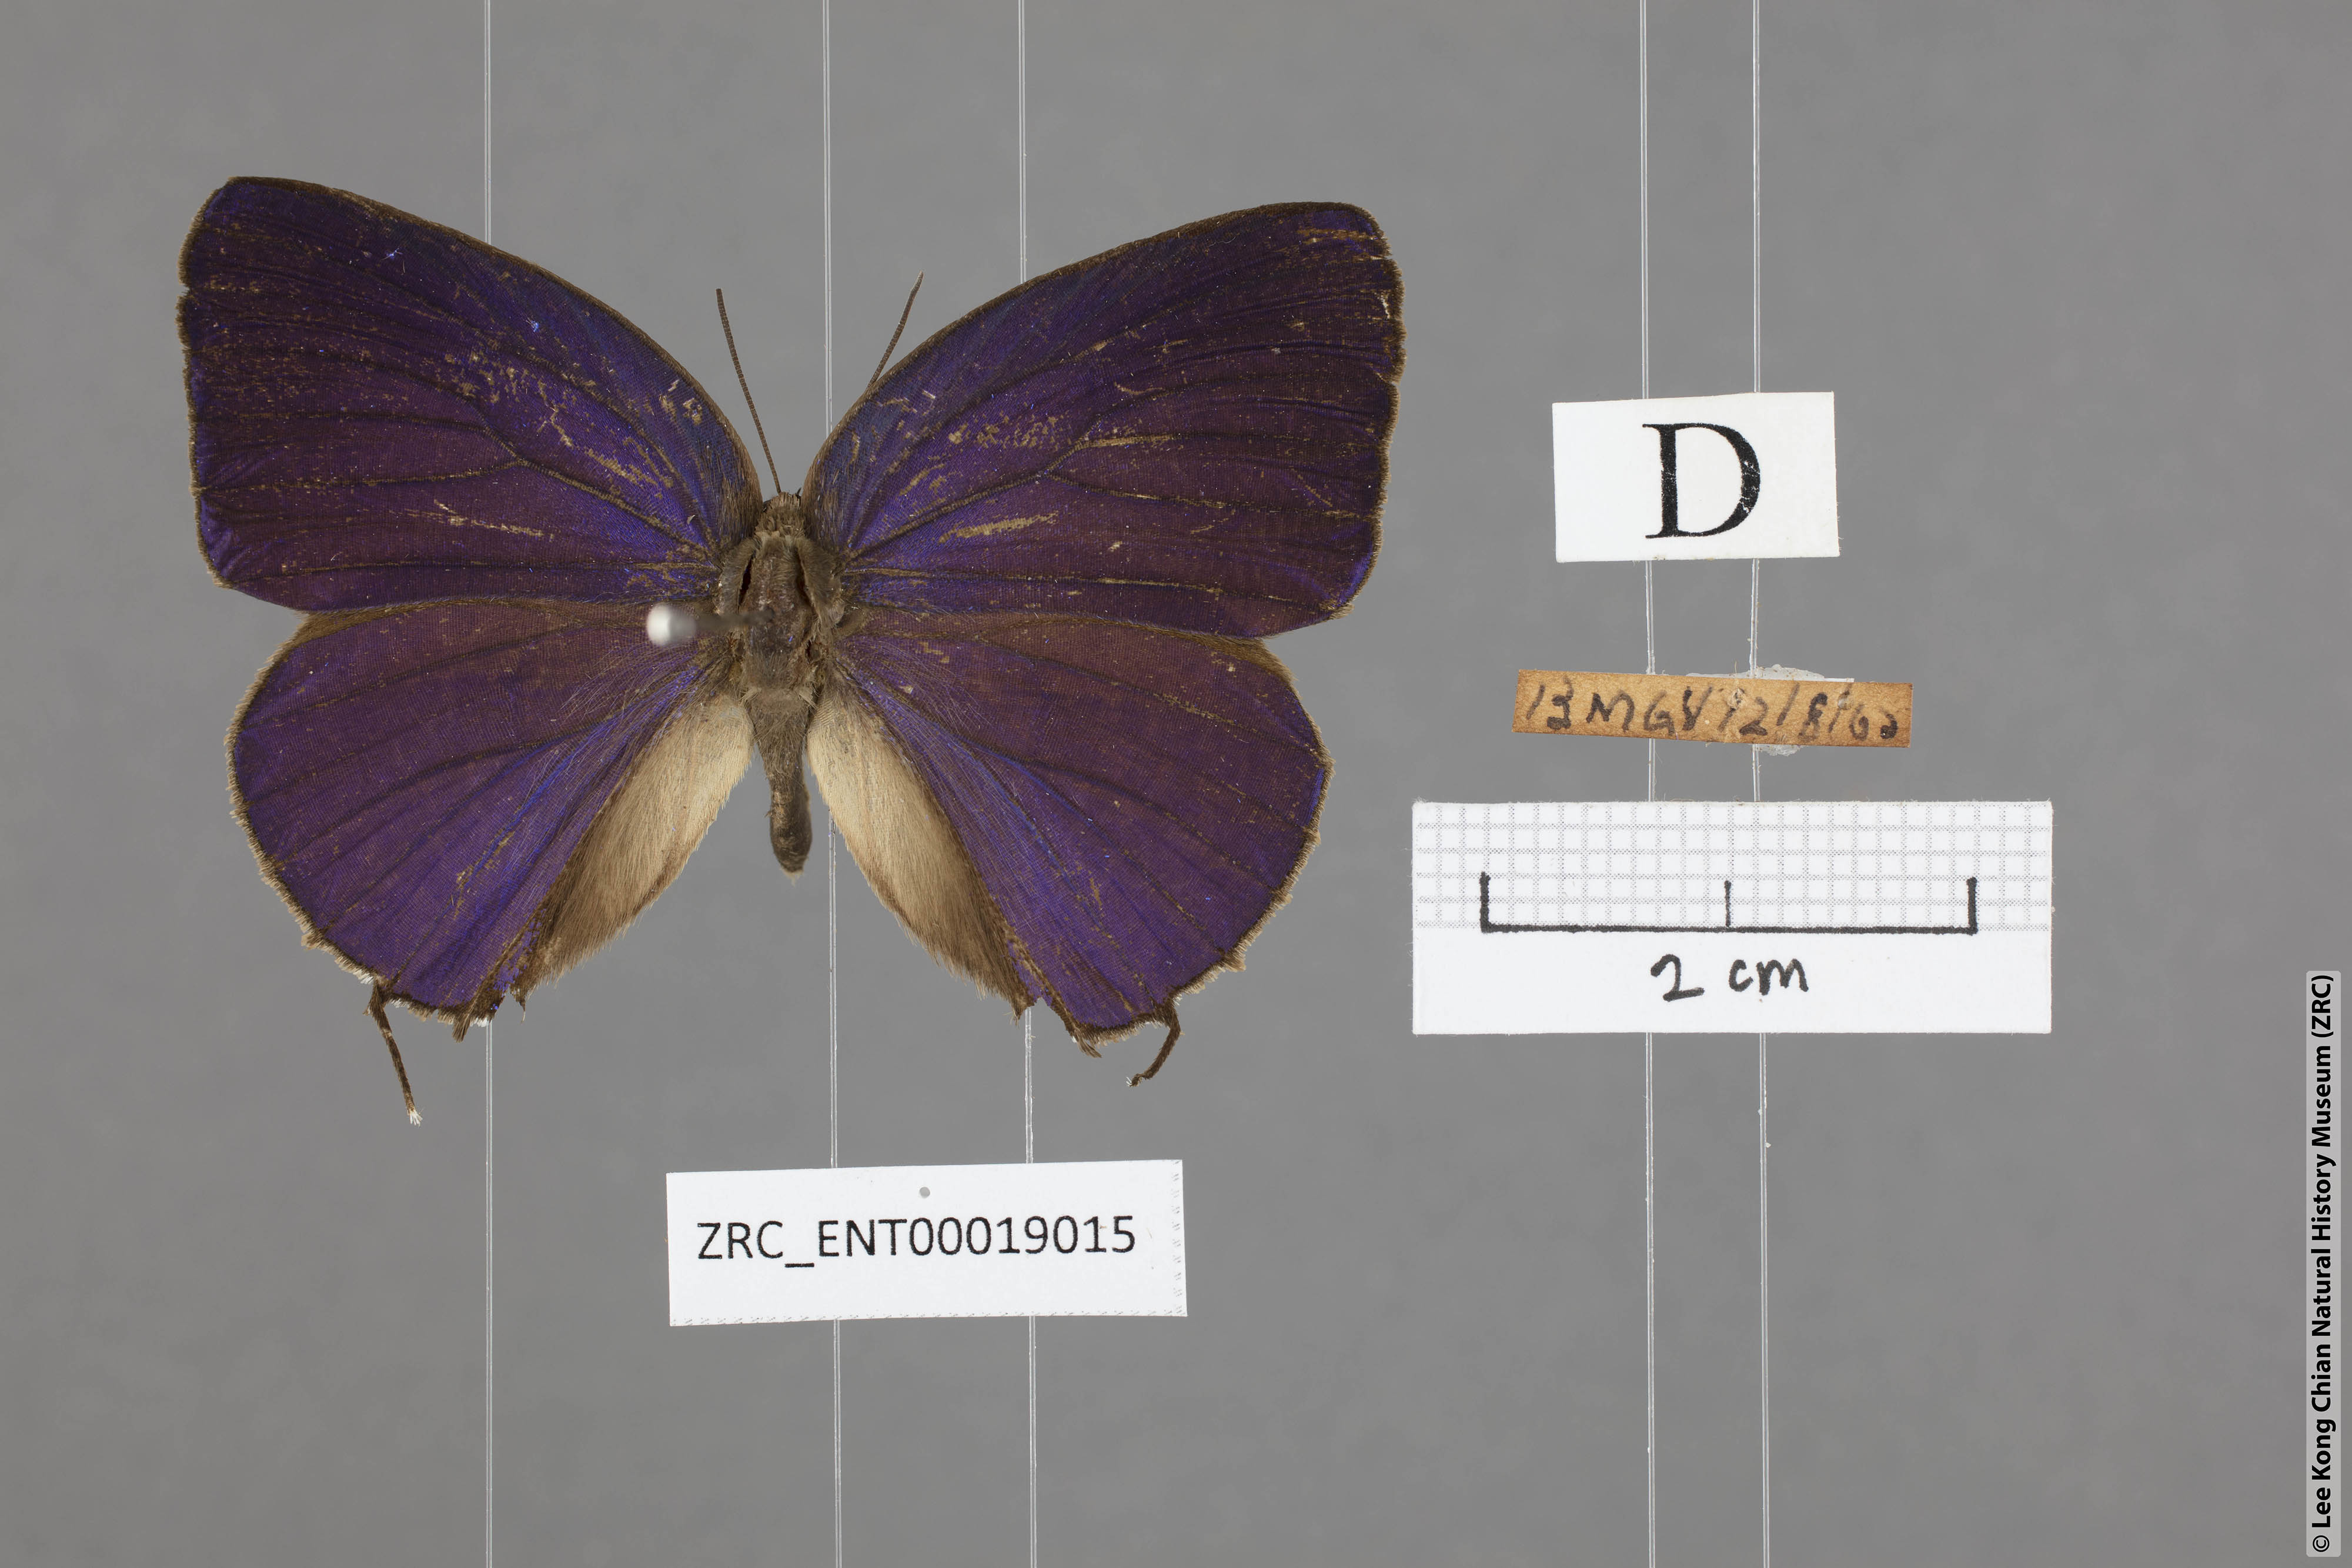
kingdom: Animalia
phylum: Arthropoda
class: Insecta
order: Lepidoptera
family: Lycaenidae
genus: Arhopala
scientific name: Arhopala aedias
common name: Large metallic oakblue
